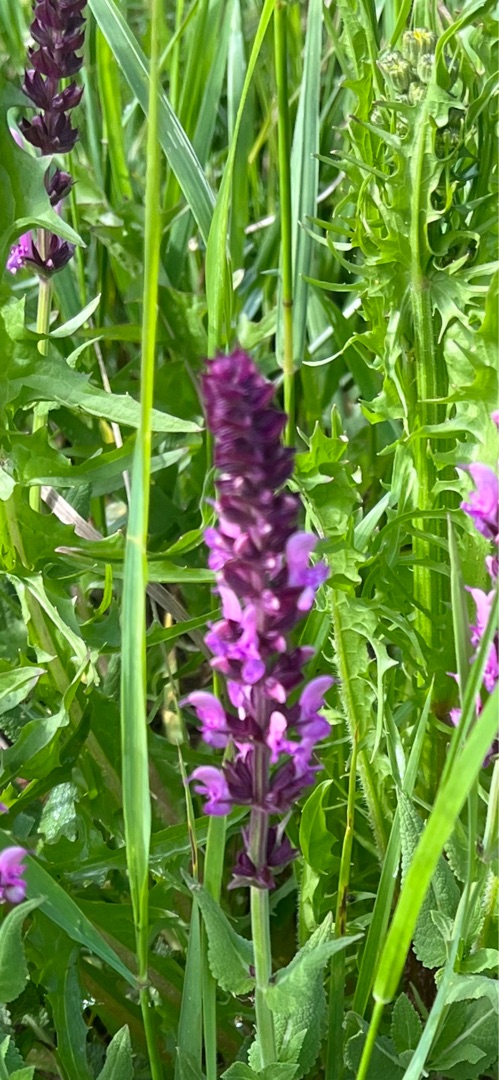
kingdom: Plantae
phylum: Tracheophyta
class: Magnoliopsida
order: Lamiales
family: Lamiaceae
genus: Salvia
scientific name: Salvia nemorosa
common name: Småblomstret salvie
